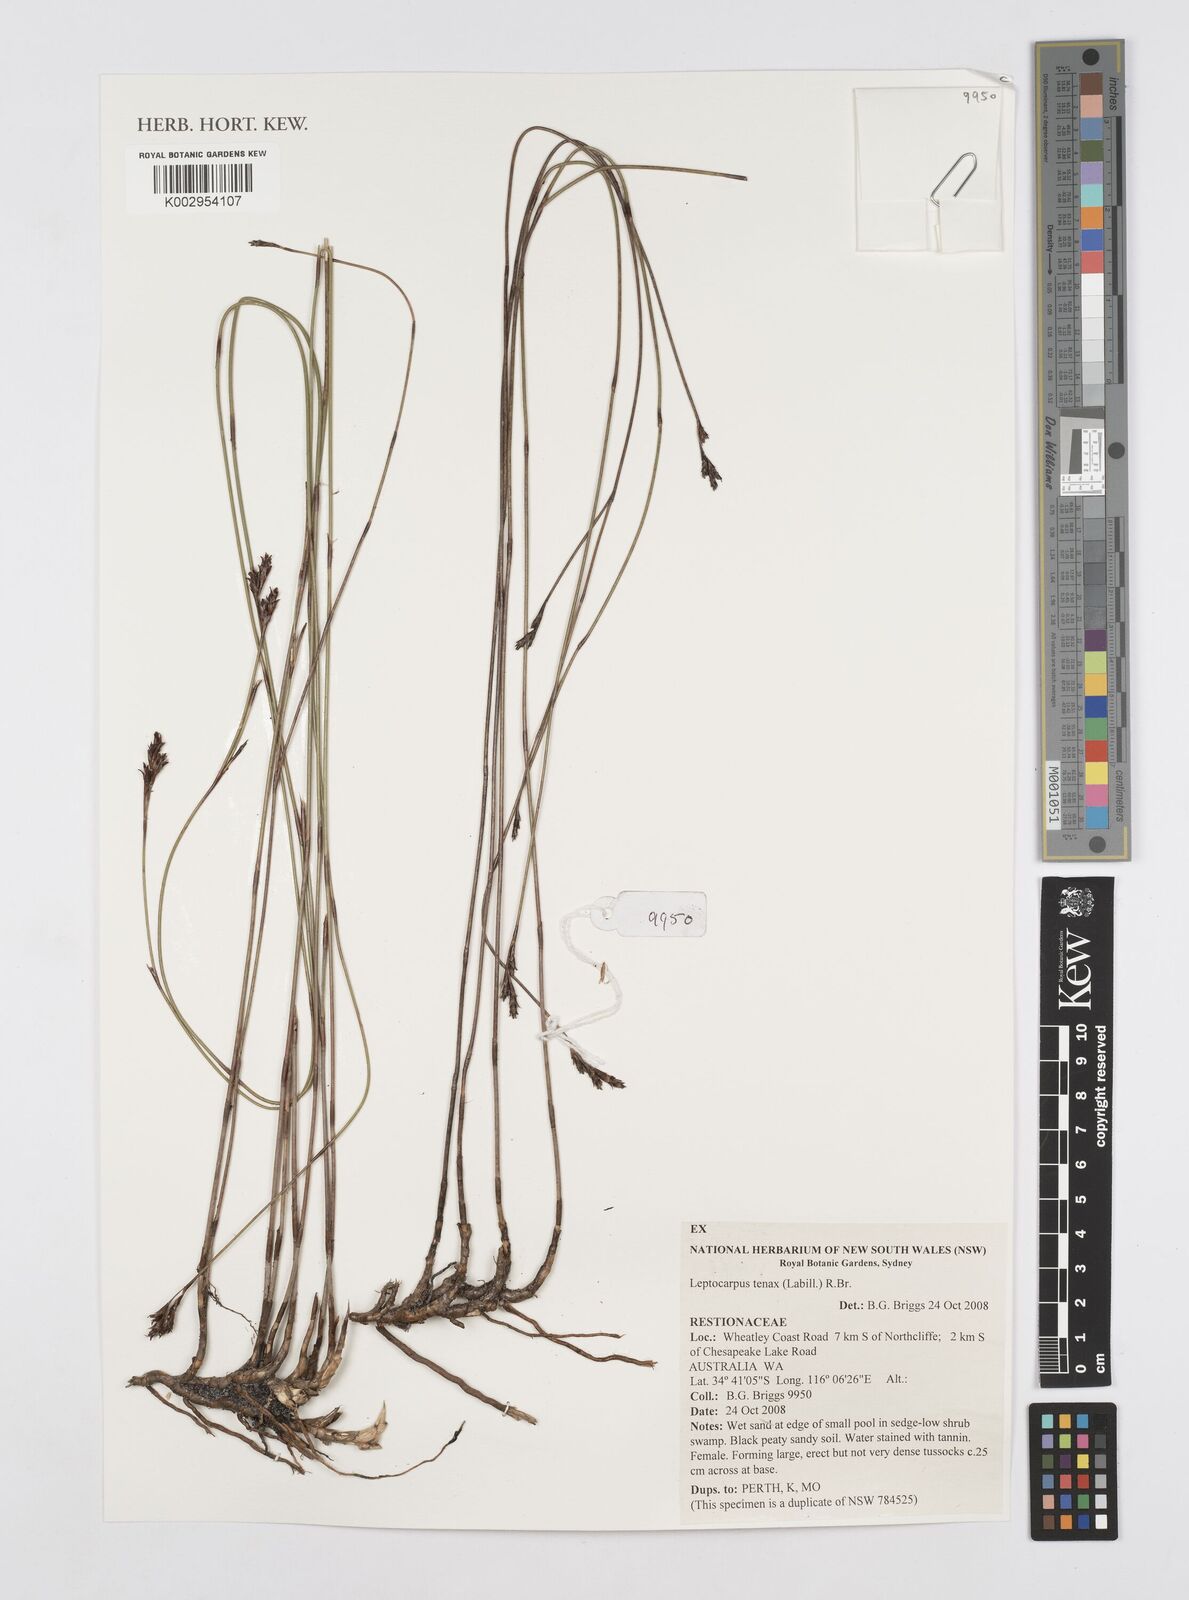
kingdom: Plantae
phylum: Tracheophyta
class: Liliopsida
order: Poales
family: Restionaceae
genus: Leptocarpus
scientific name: Leptocarpus tenax
